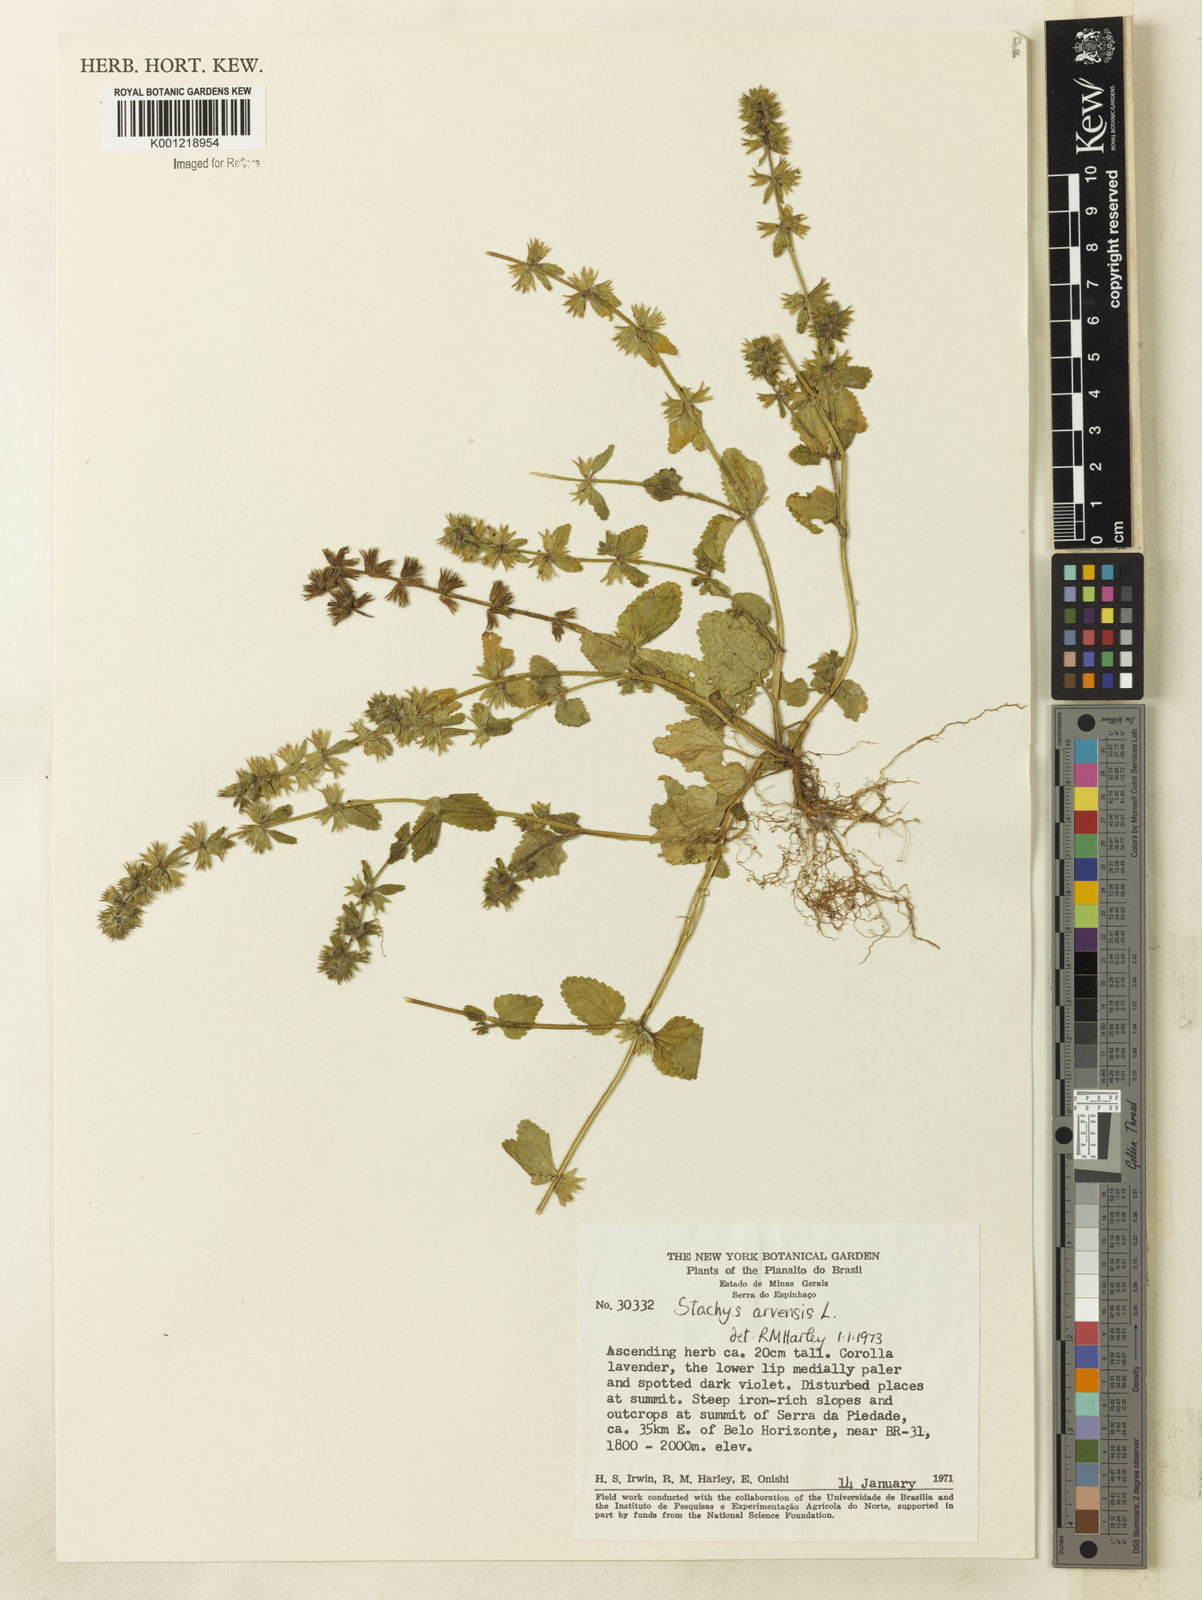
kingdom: Plantae
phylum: Tracheophyta
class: Magnoliopsida
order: Lamiales
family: Lamiaceae
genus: Stachys
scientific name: Stachys arvensis
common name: Field woundwort
